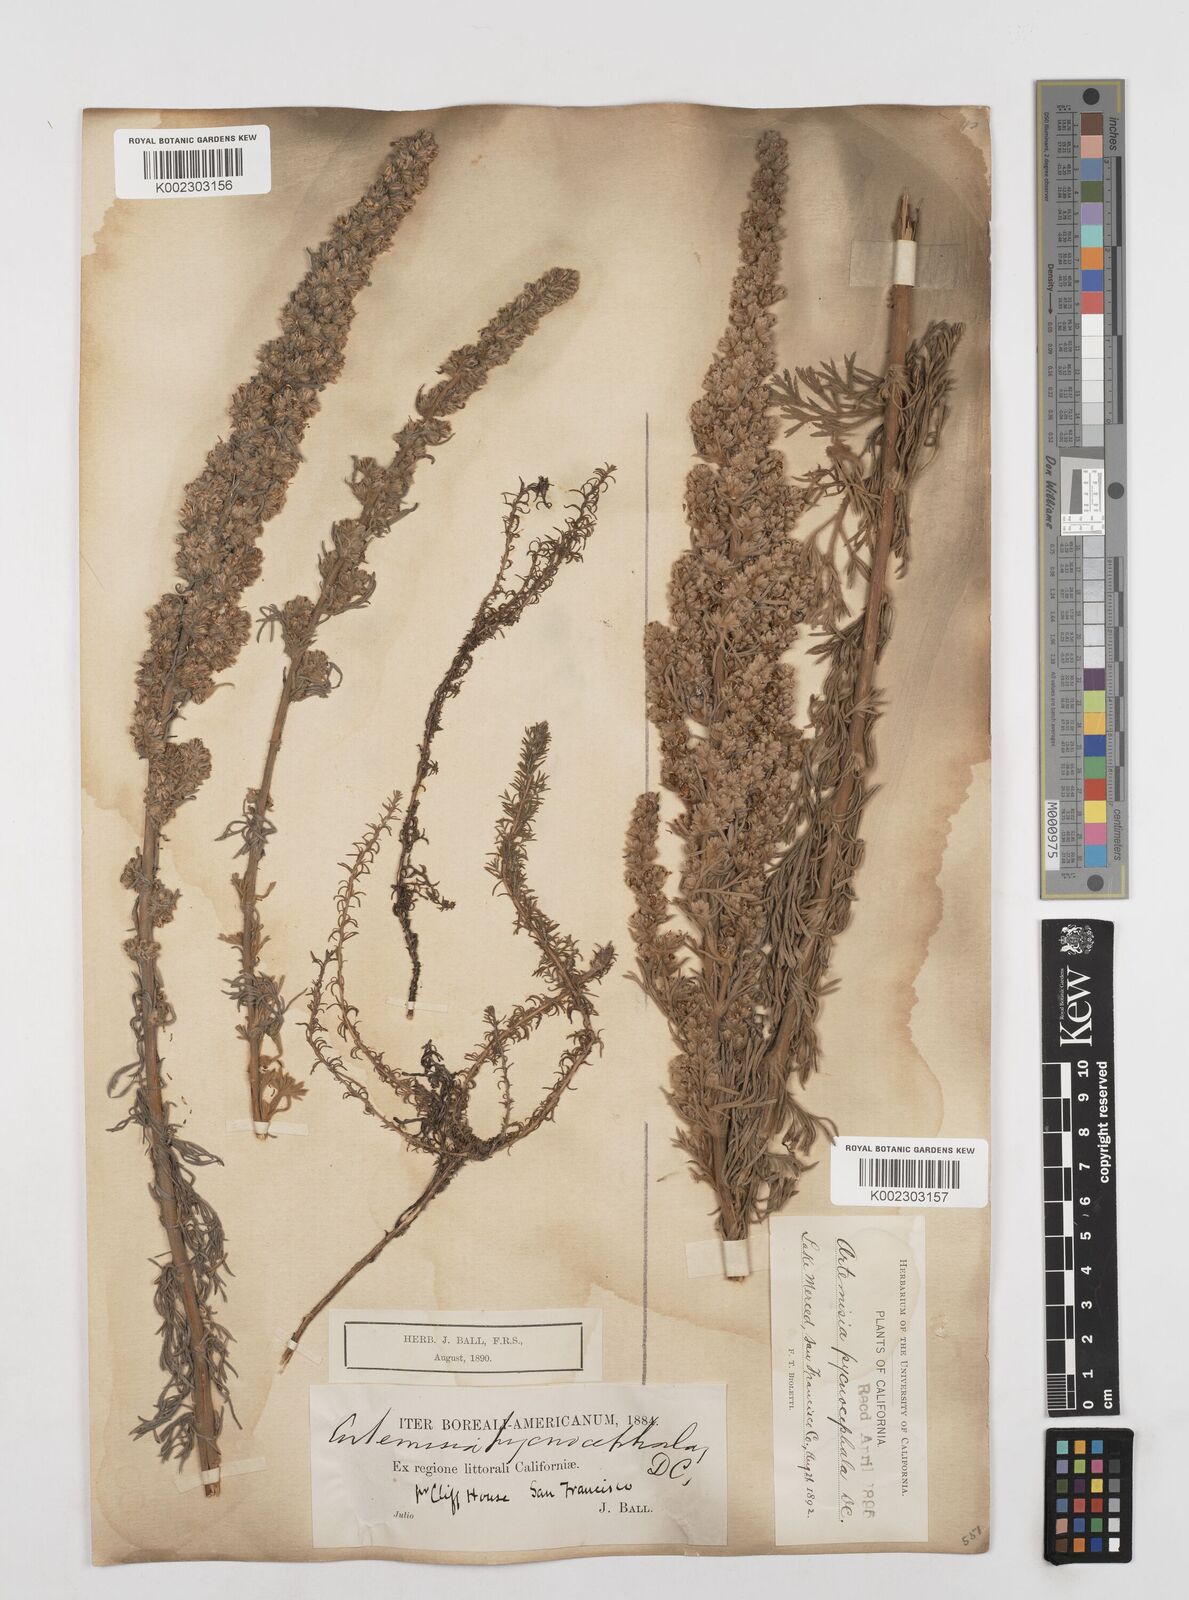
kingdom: Plantae
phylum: Tracheophyta
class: Magnoliopsida
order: Asterales
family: Asteraceae
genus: Artemisia
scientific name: Artemisia pycnocephala
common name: Coastal sagewort
